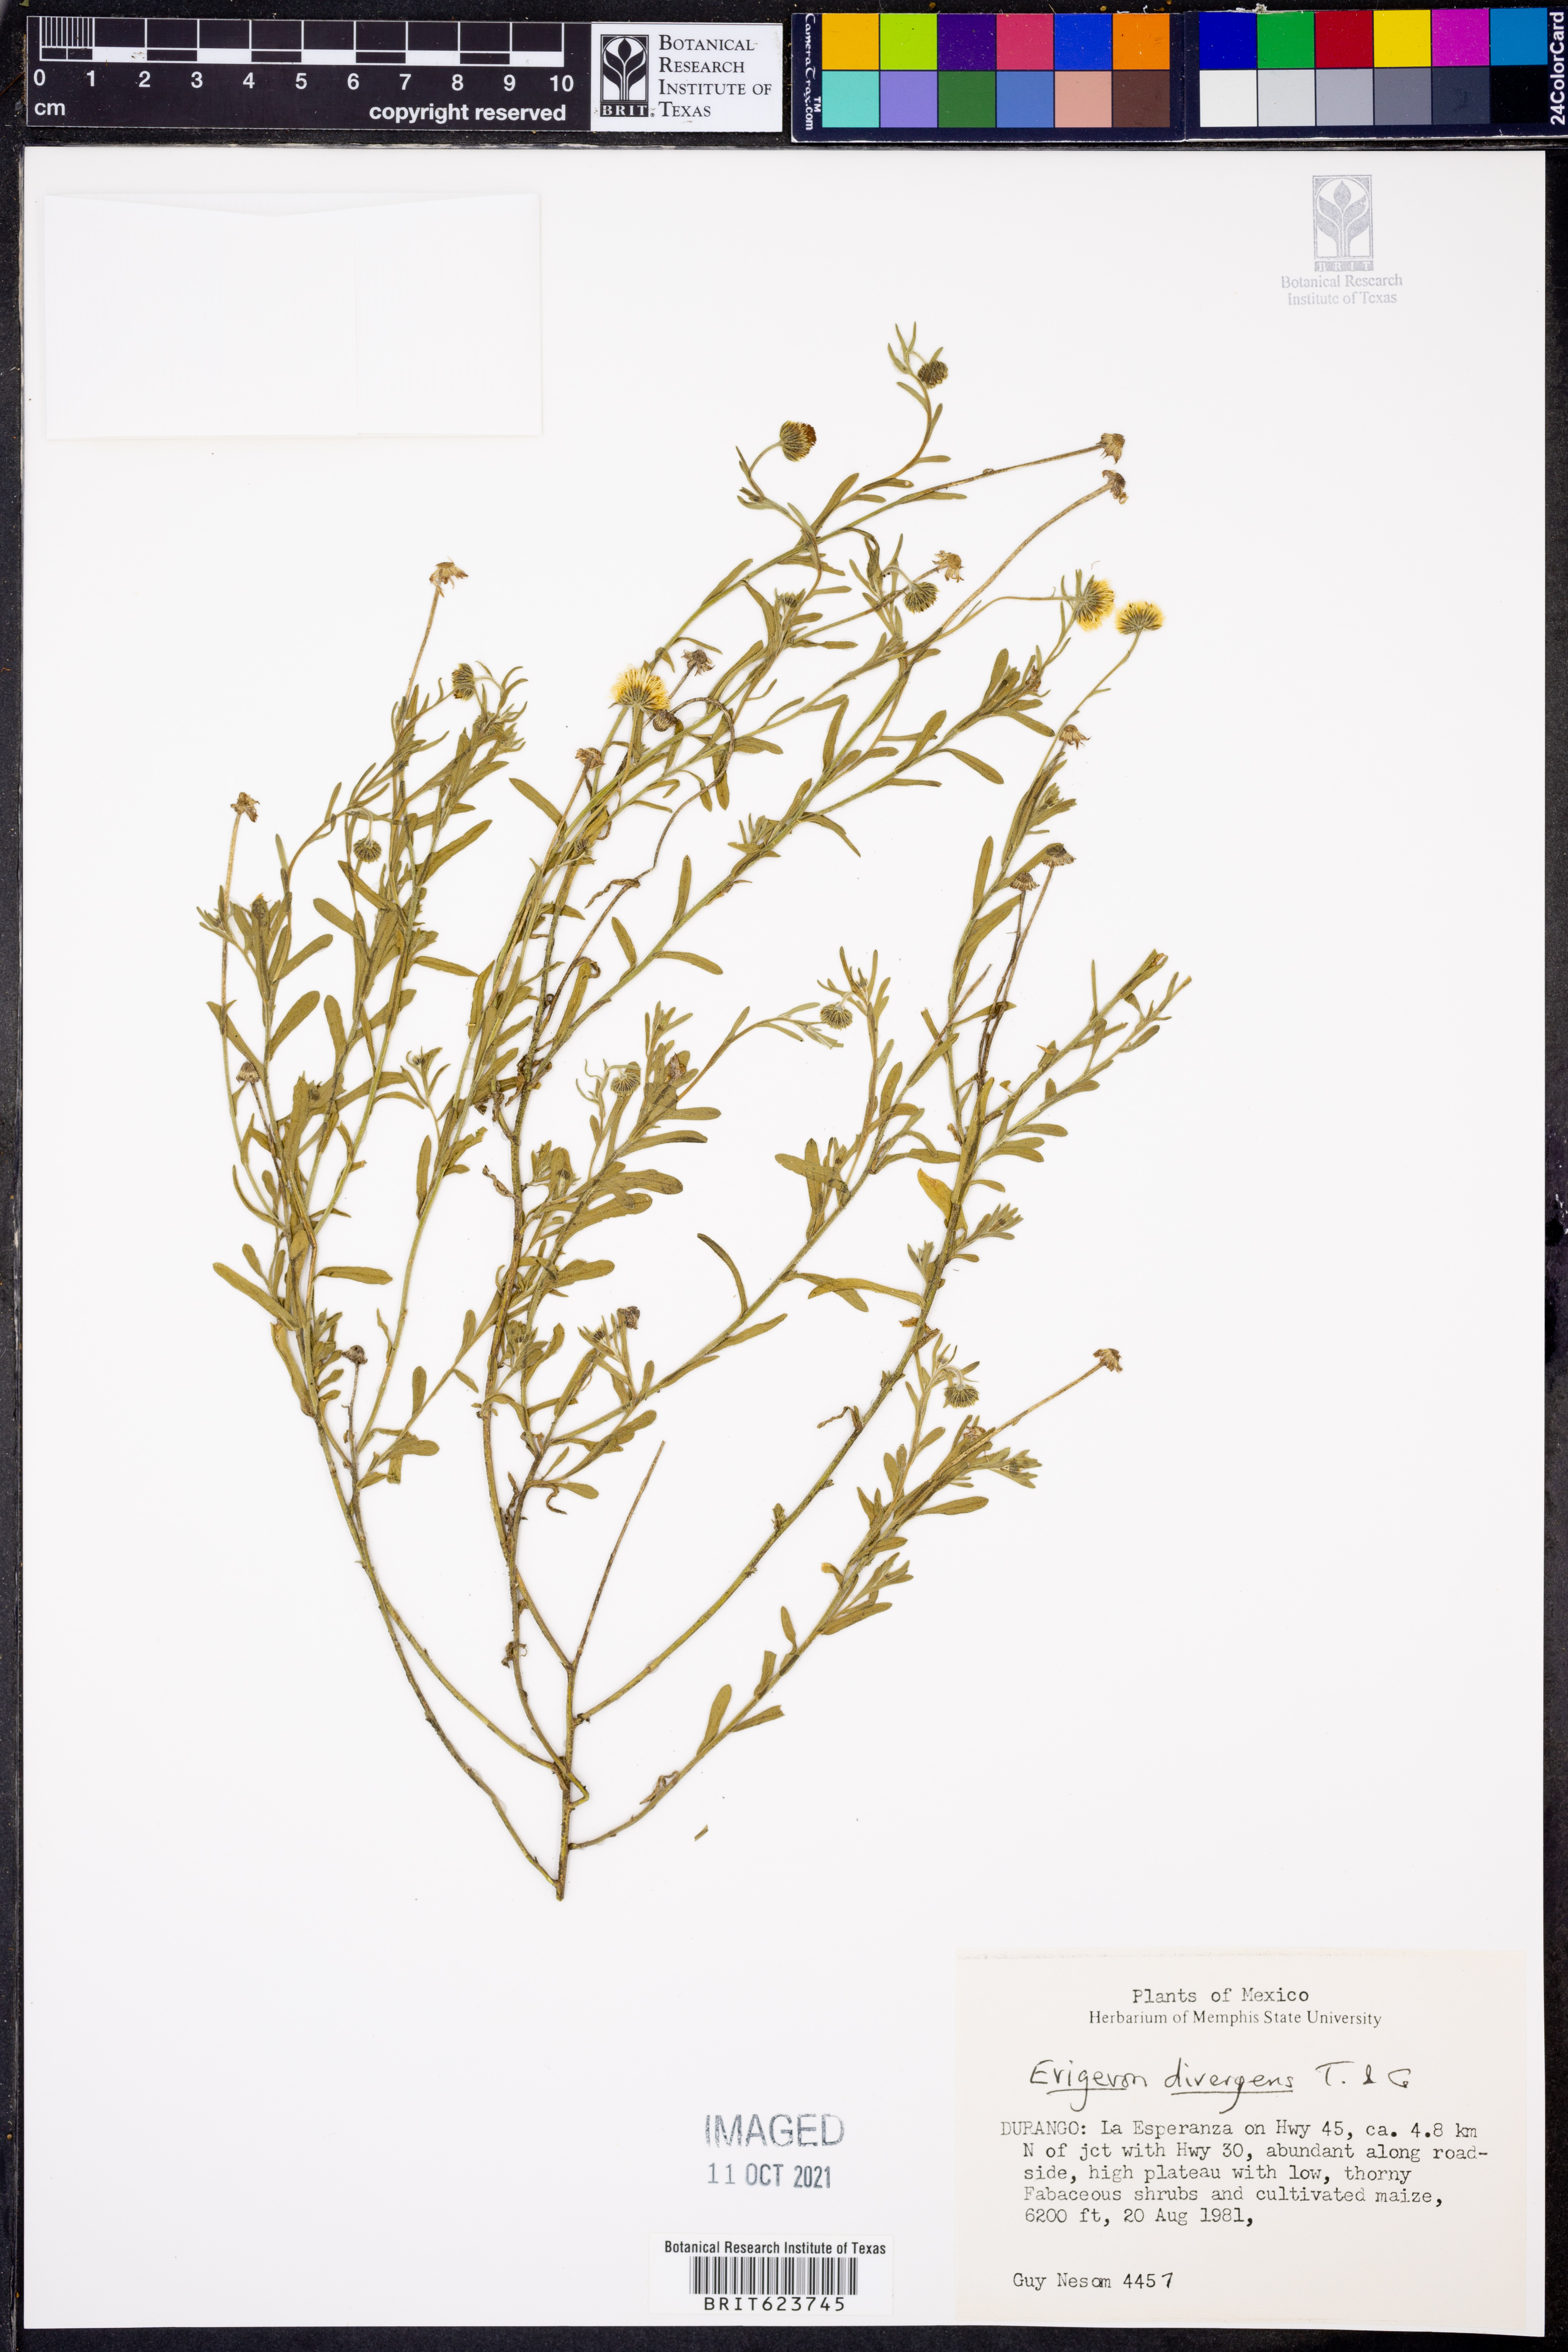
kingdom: Plantae
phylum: Tracheophyta
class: Magnoliopsida
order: Asterales
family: Asteraceae
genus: Erigeron
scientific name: Erigeron divergens
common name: Diffuse fleabane
